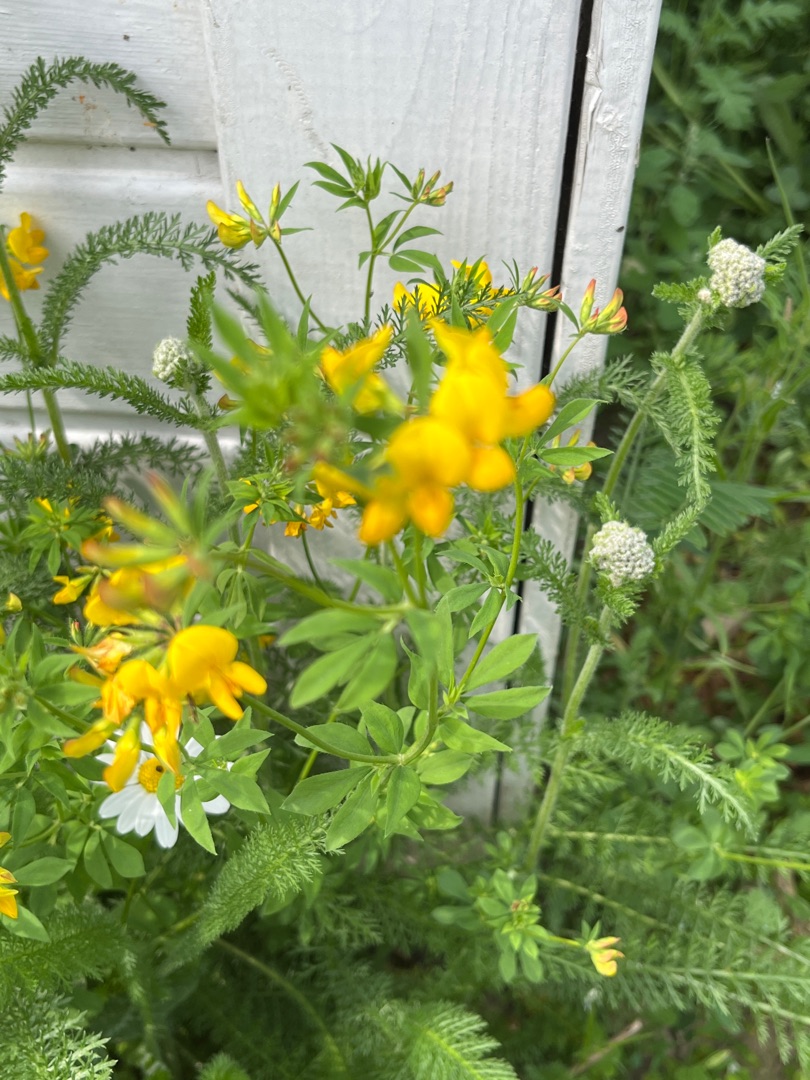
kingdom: Plantae
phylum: Tracheophyta
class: Magnoliopsida
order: Fabales
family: Fabaceae
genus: Lotus
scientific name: Lotus corniculatus
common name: Almindelig kællingetand
